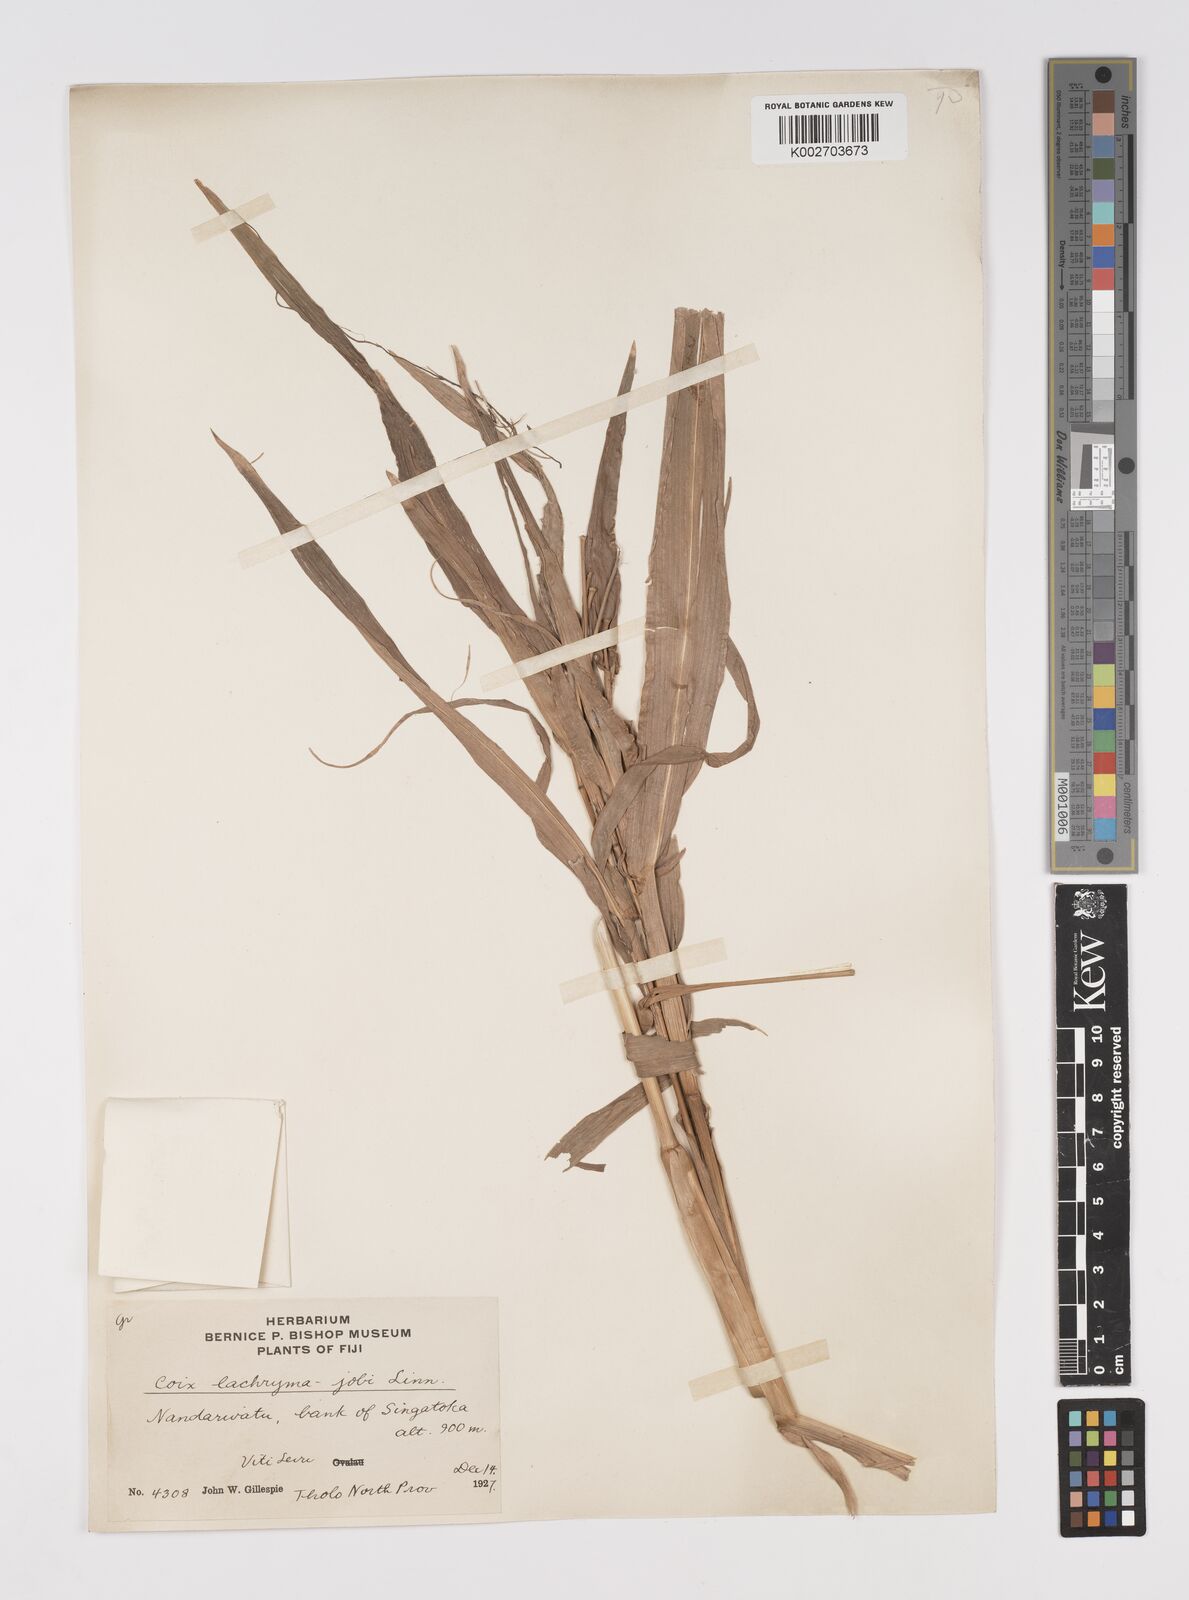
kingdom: Plantae
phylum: Tracheophyta
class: Liliopsida
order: Poales
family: Poaceae
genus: Coix
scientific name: Coix lacryma-jobi
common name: Job's tears
